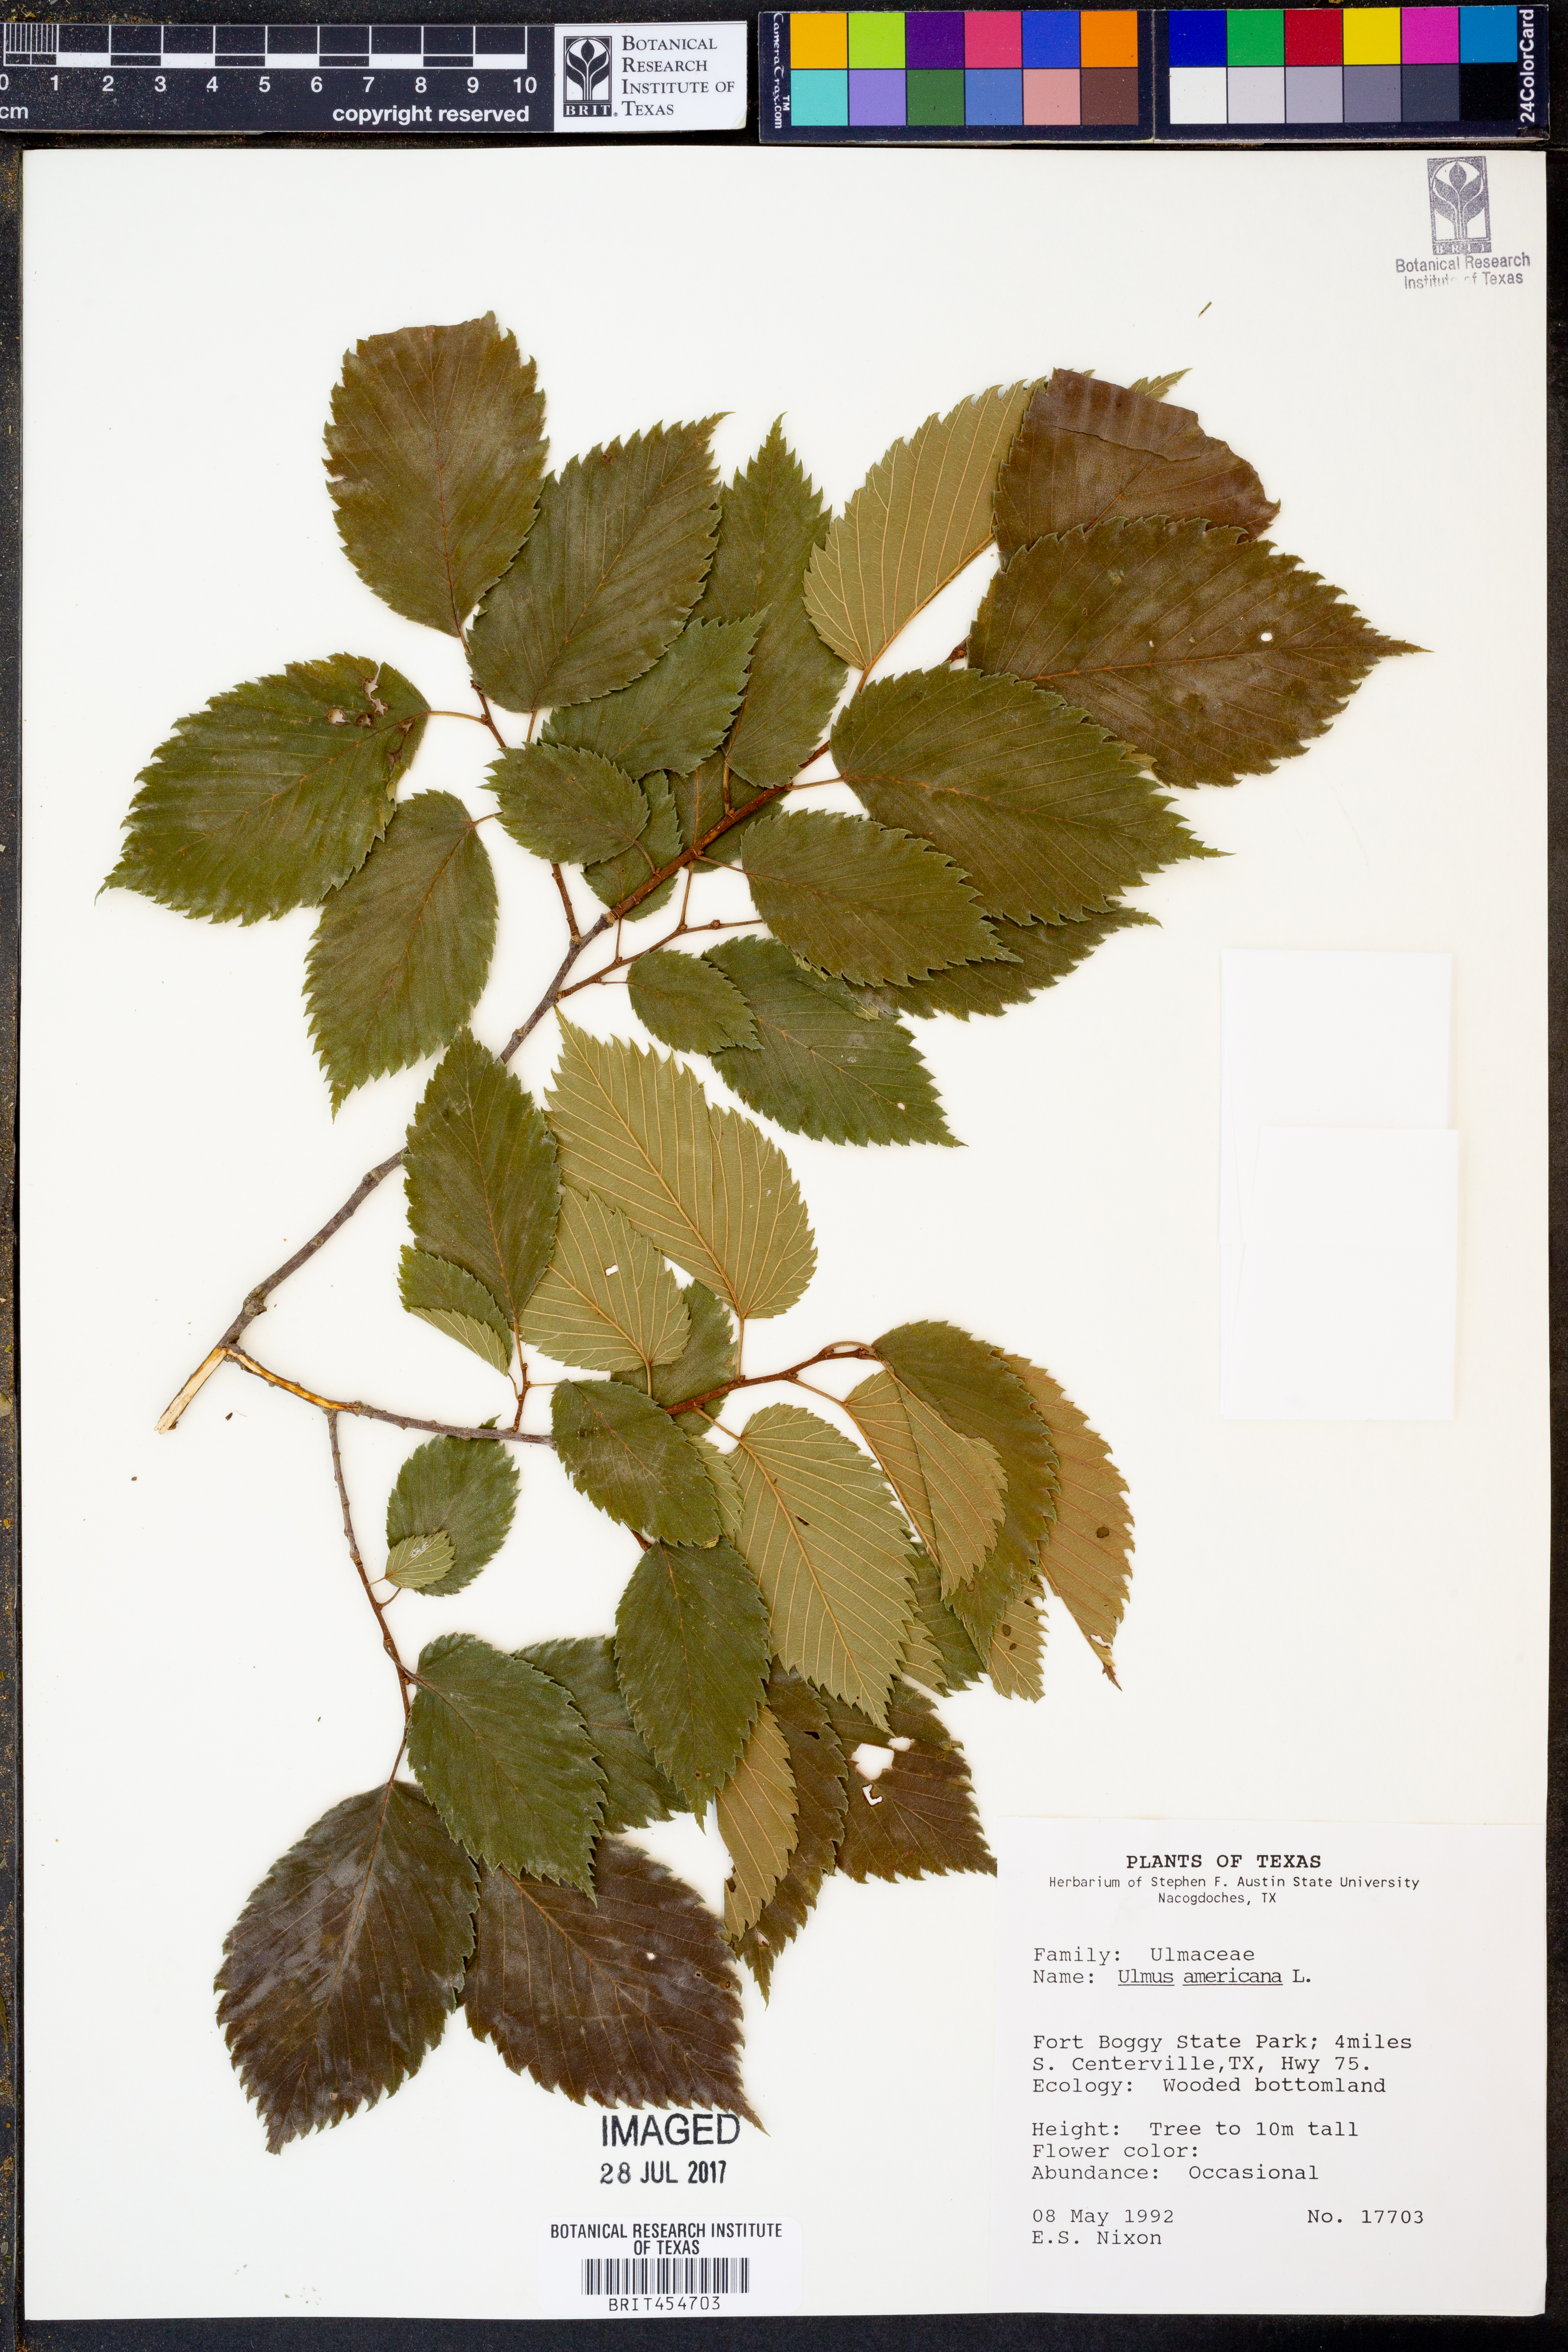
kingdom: Plantae
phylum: Tracheophyta
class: Magnoliopsida
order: Rosales
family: Ulmaceae
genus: Ulmus
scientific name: Ulmus americana
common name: American elm
